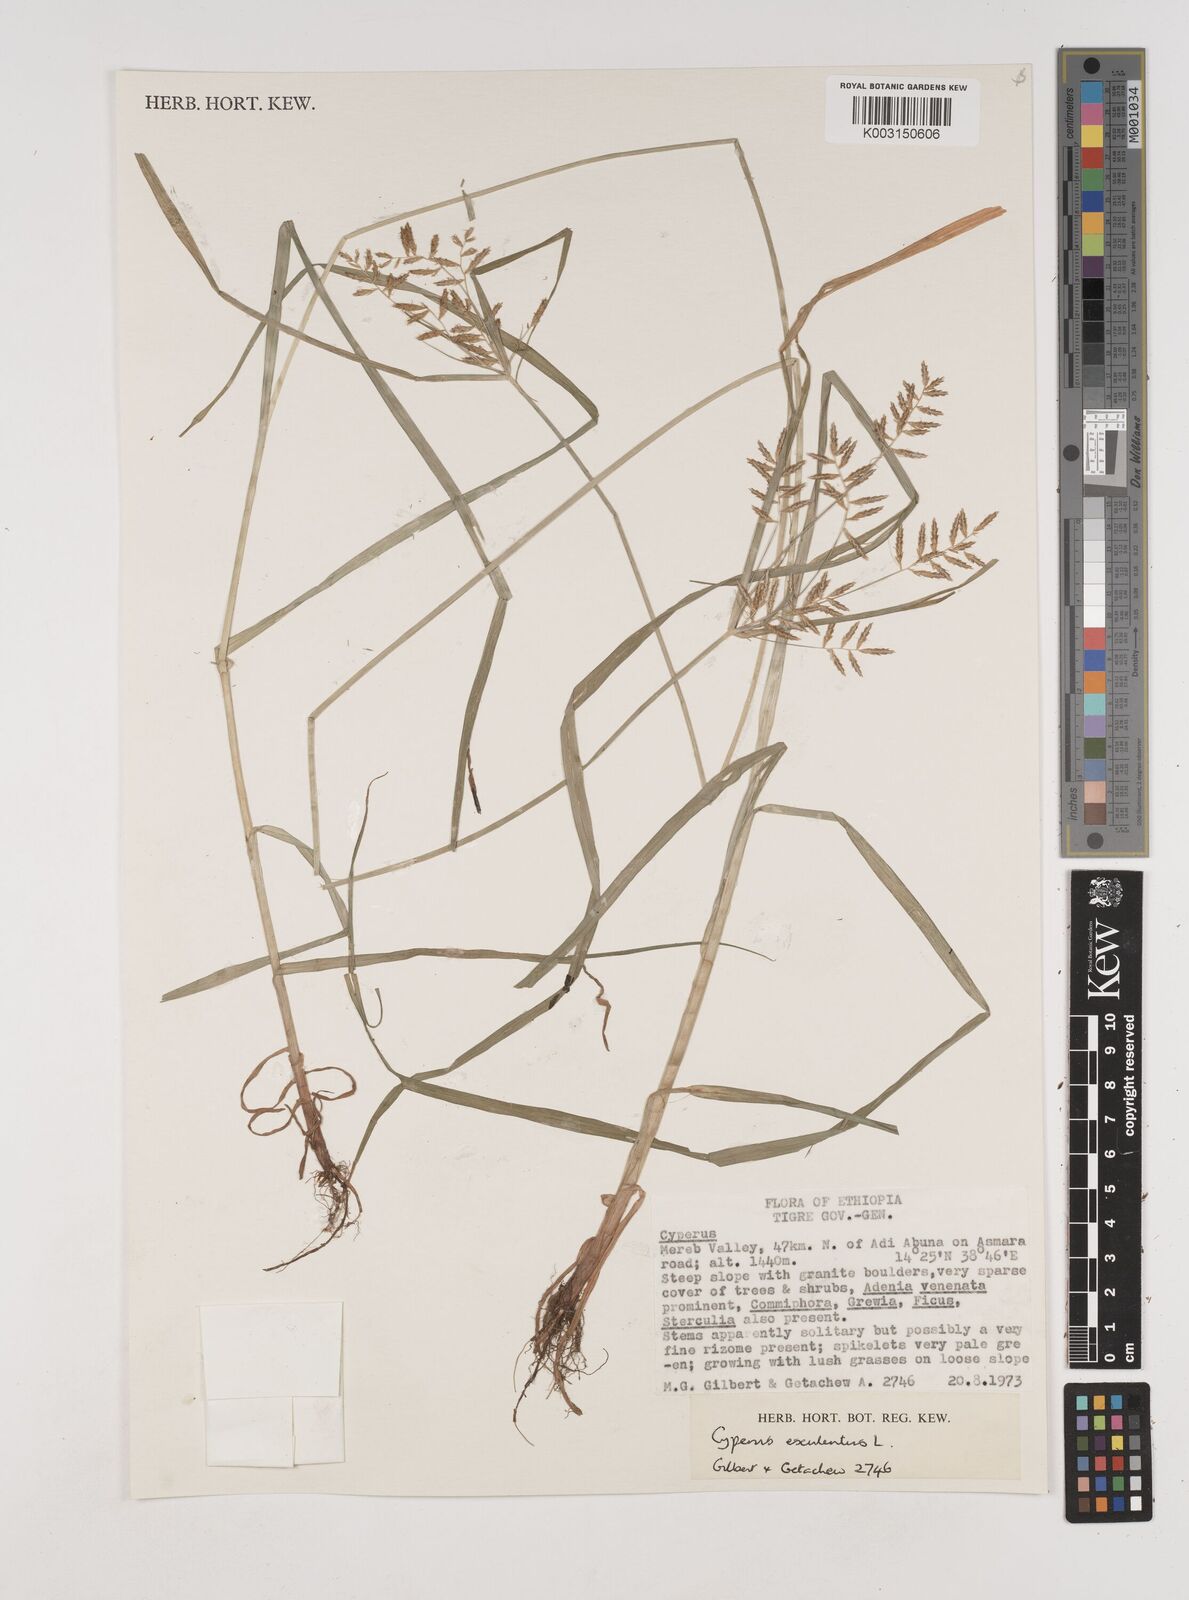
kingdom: Plantae
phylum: Tracheophyta
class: Liliopsida
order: Poales
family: Cyperaceae
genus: Cyperus
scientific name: Cyperus esculentus
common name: Yellow nutsedge
